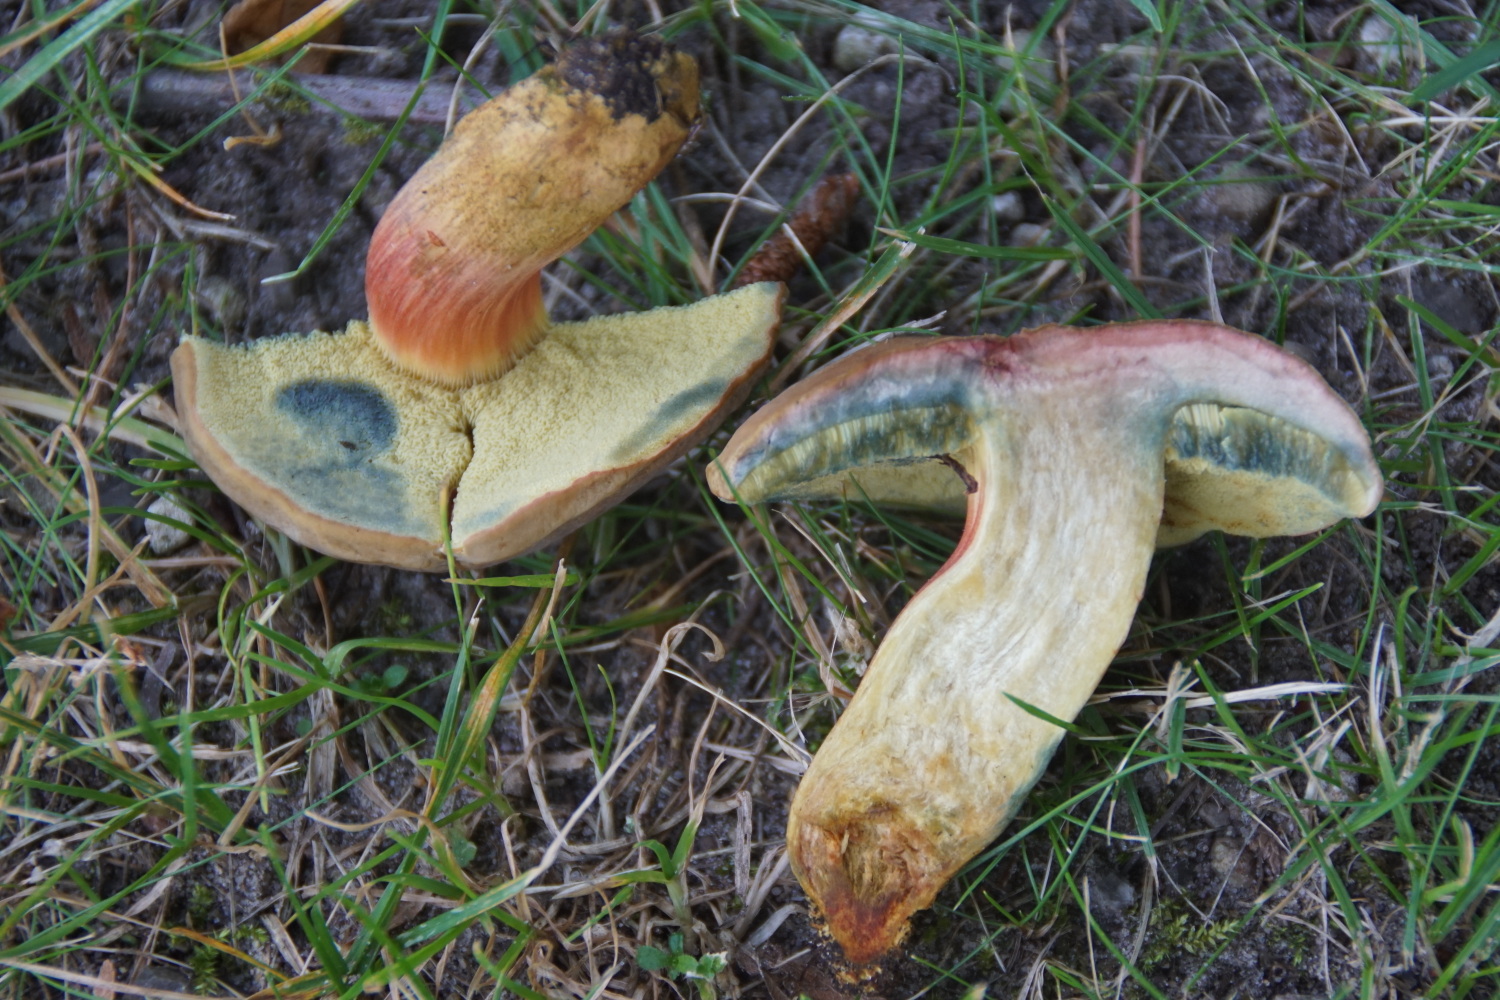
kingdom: Fungi
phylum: Basidiomycota
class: Agaricomycetes
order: Boletales
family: Boletaceae
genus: Hortiboletus
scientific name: Hortiboletus bubalinus
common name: aurora-rørhat
